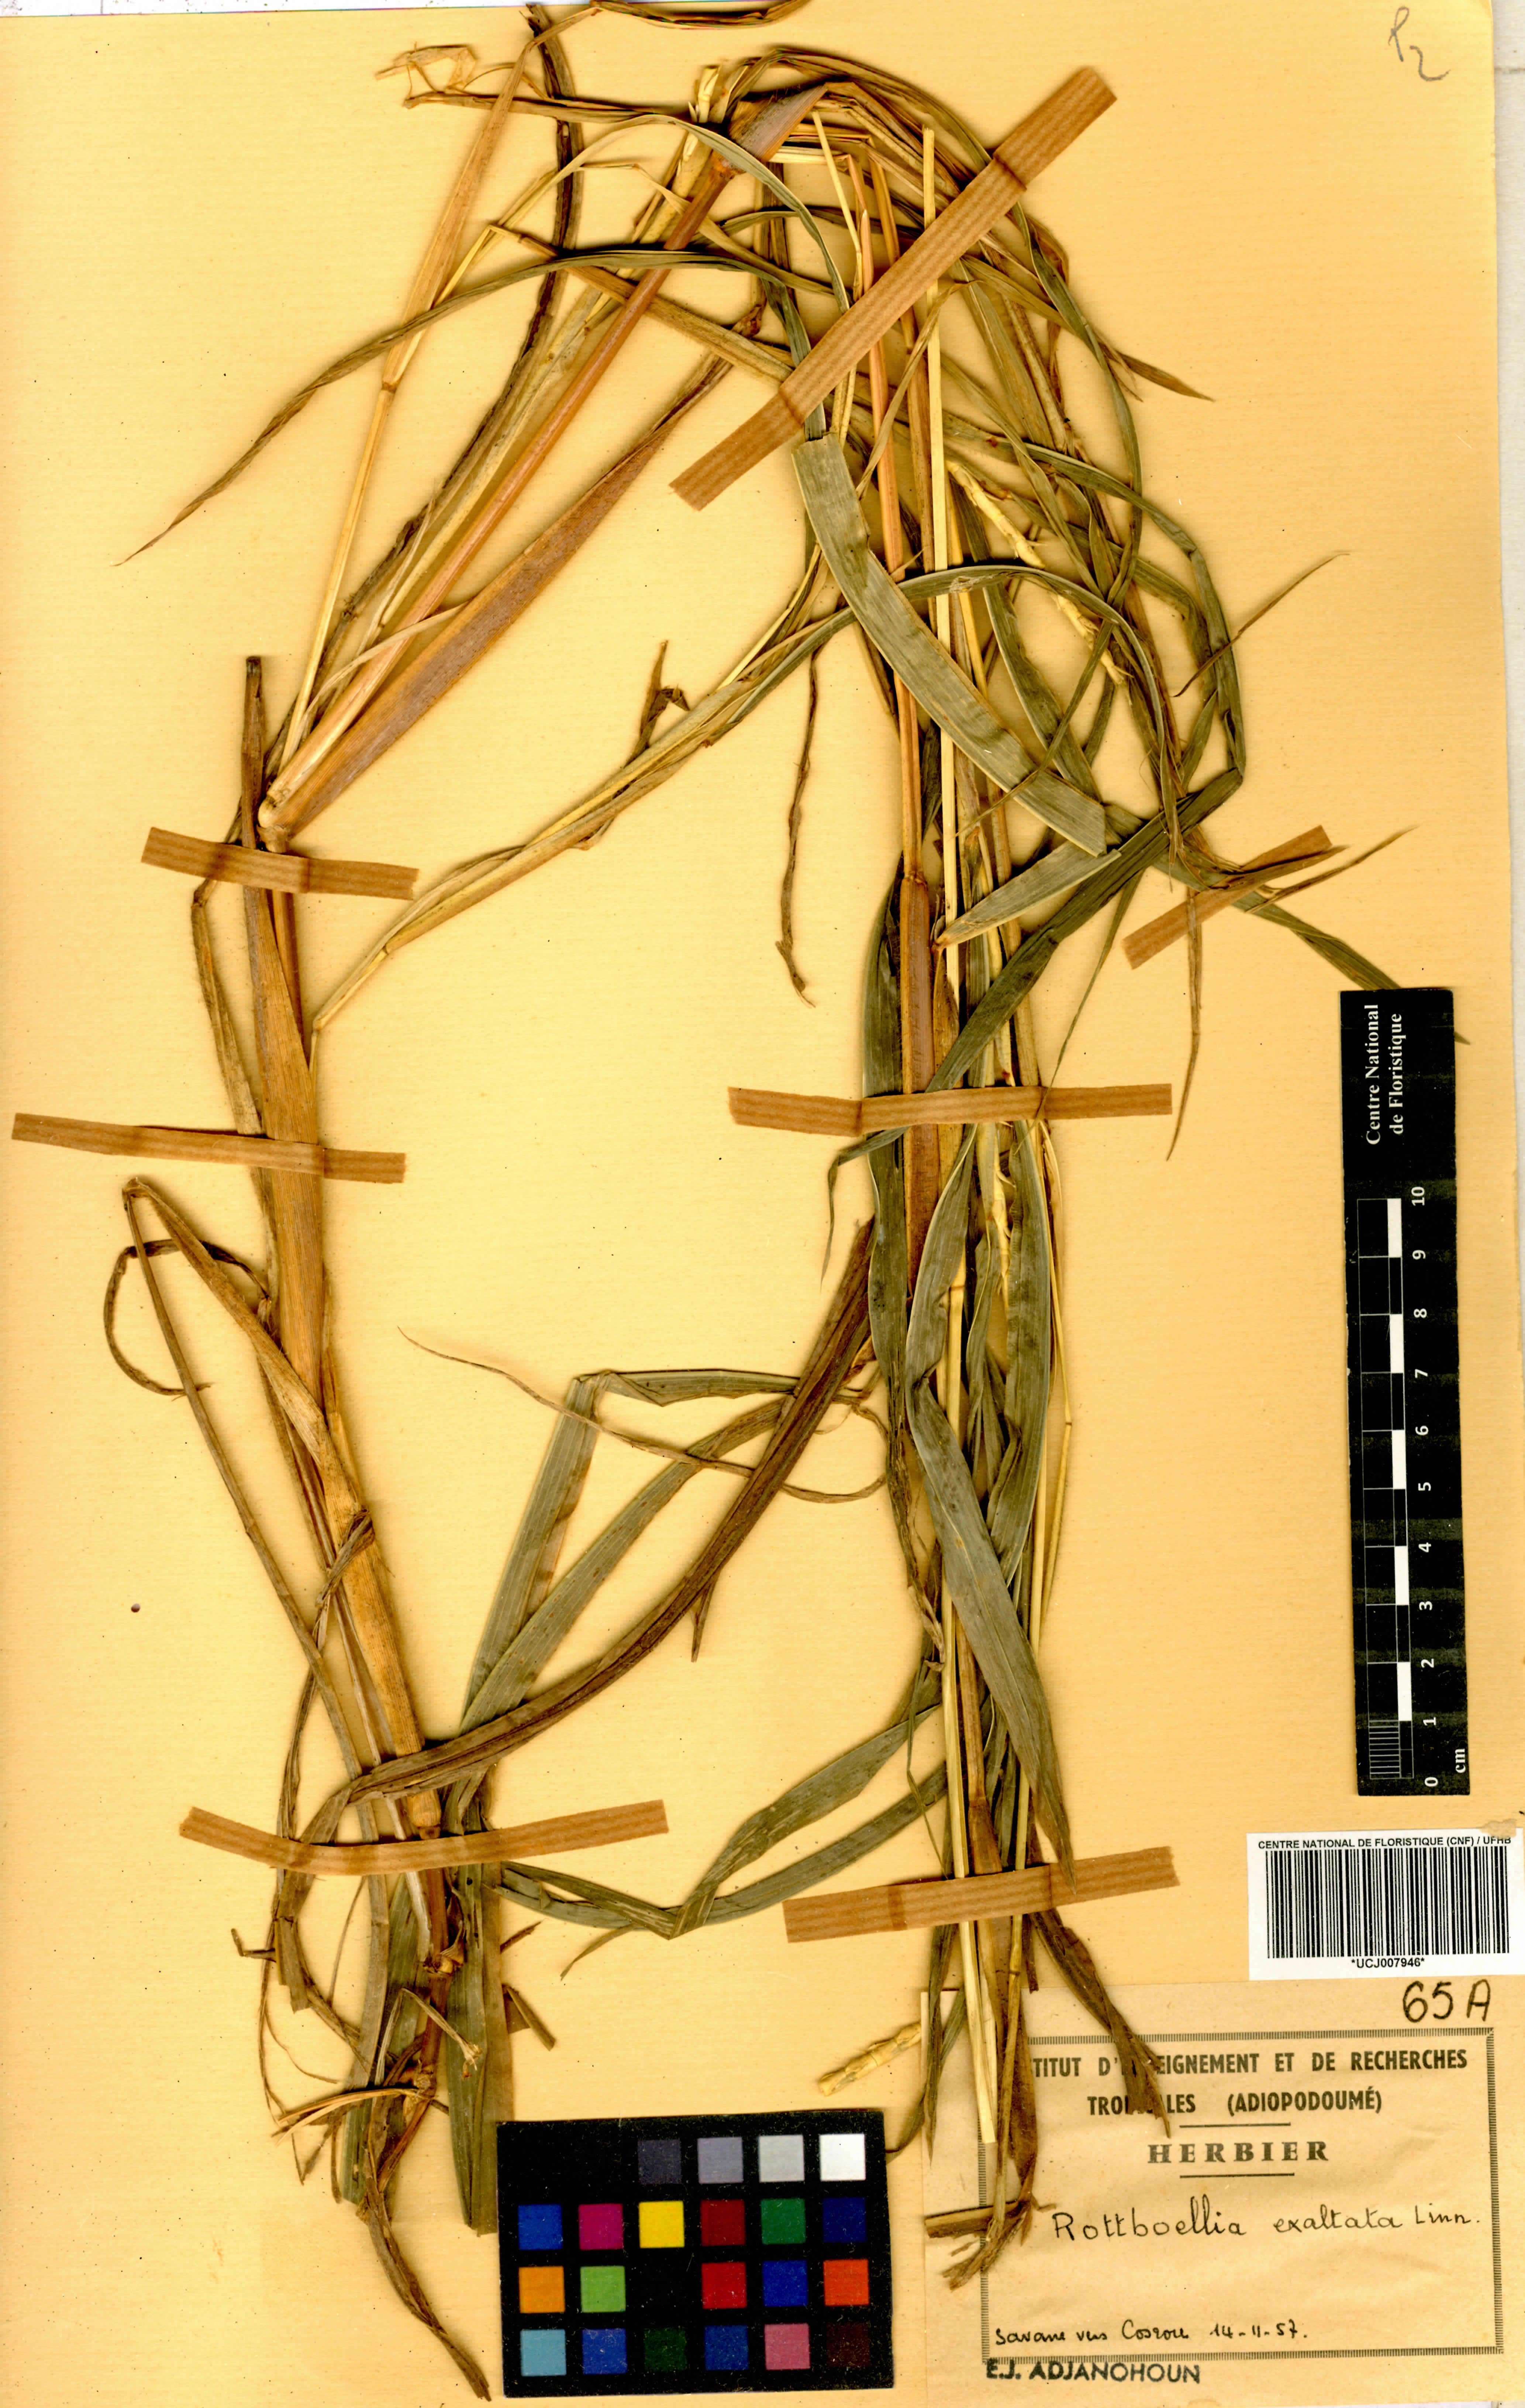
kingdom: Plantae
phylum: Tracheophyta
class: Liliopsida
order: Poales
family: Poaceae
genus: Rottboellia
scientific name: Rottboellia
